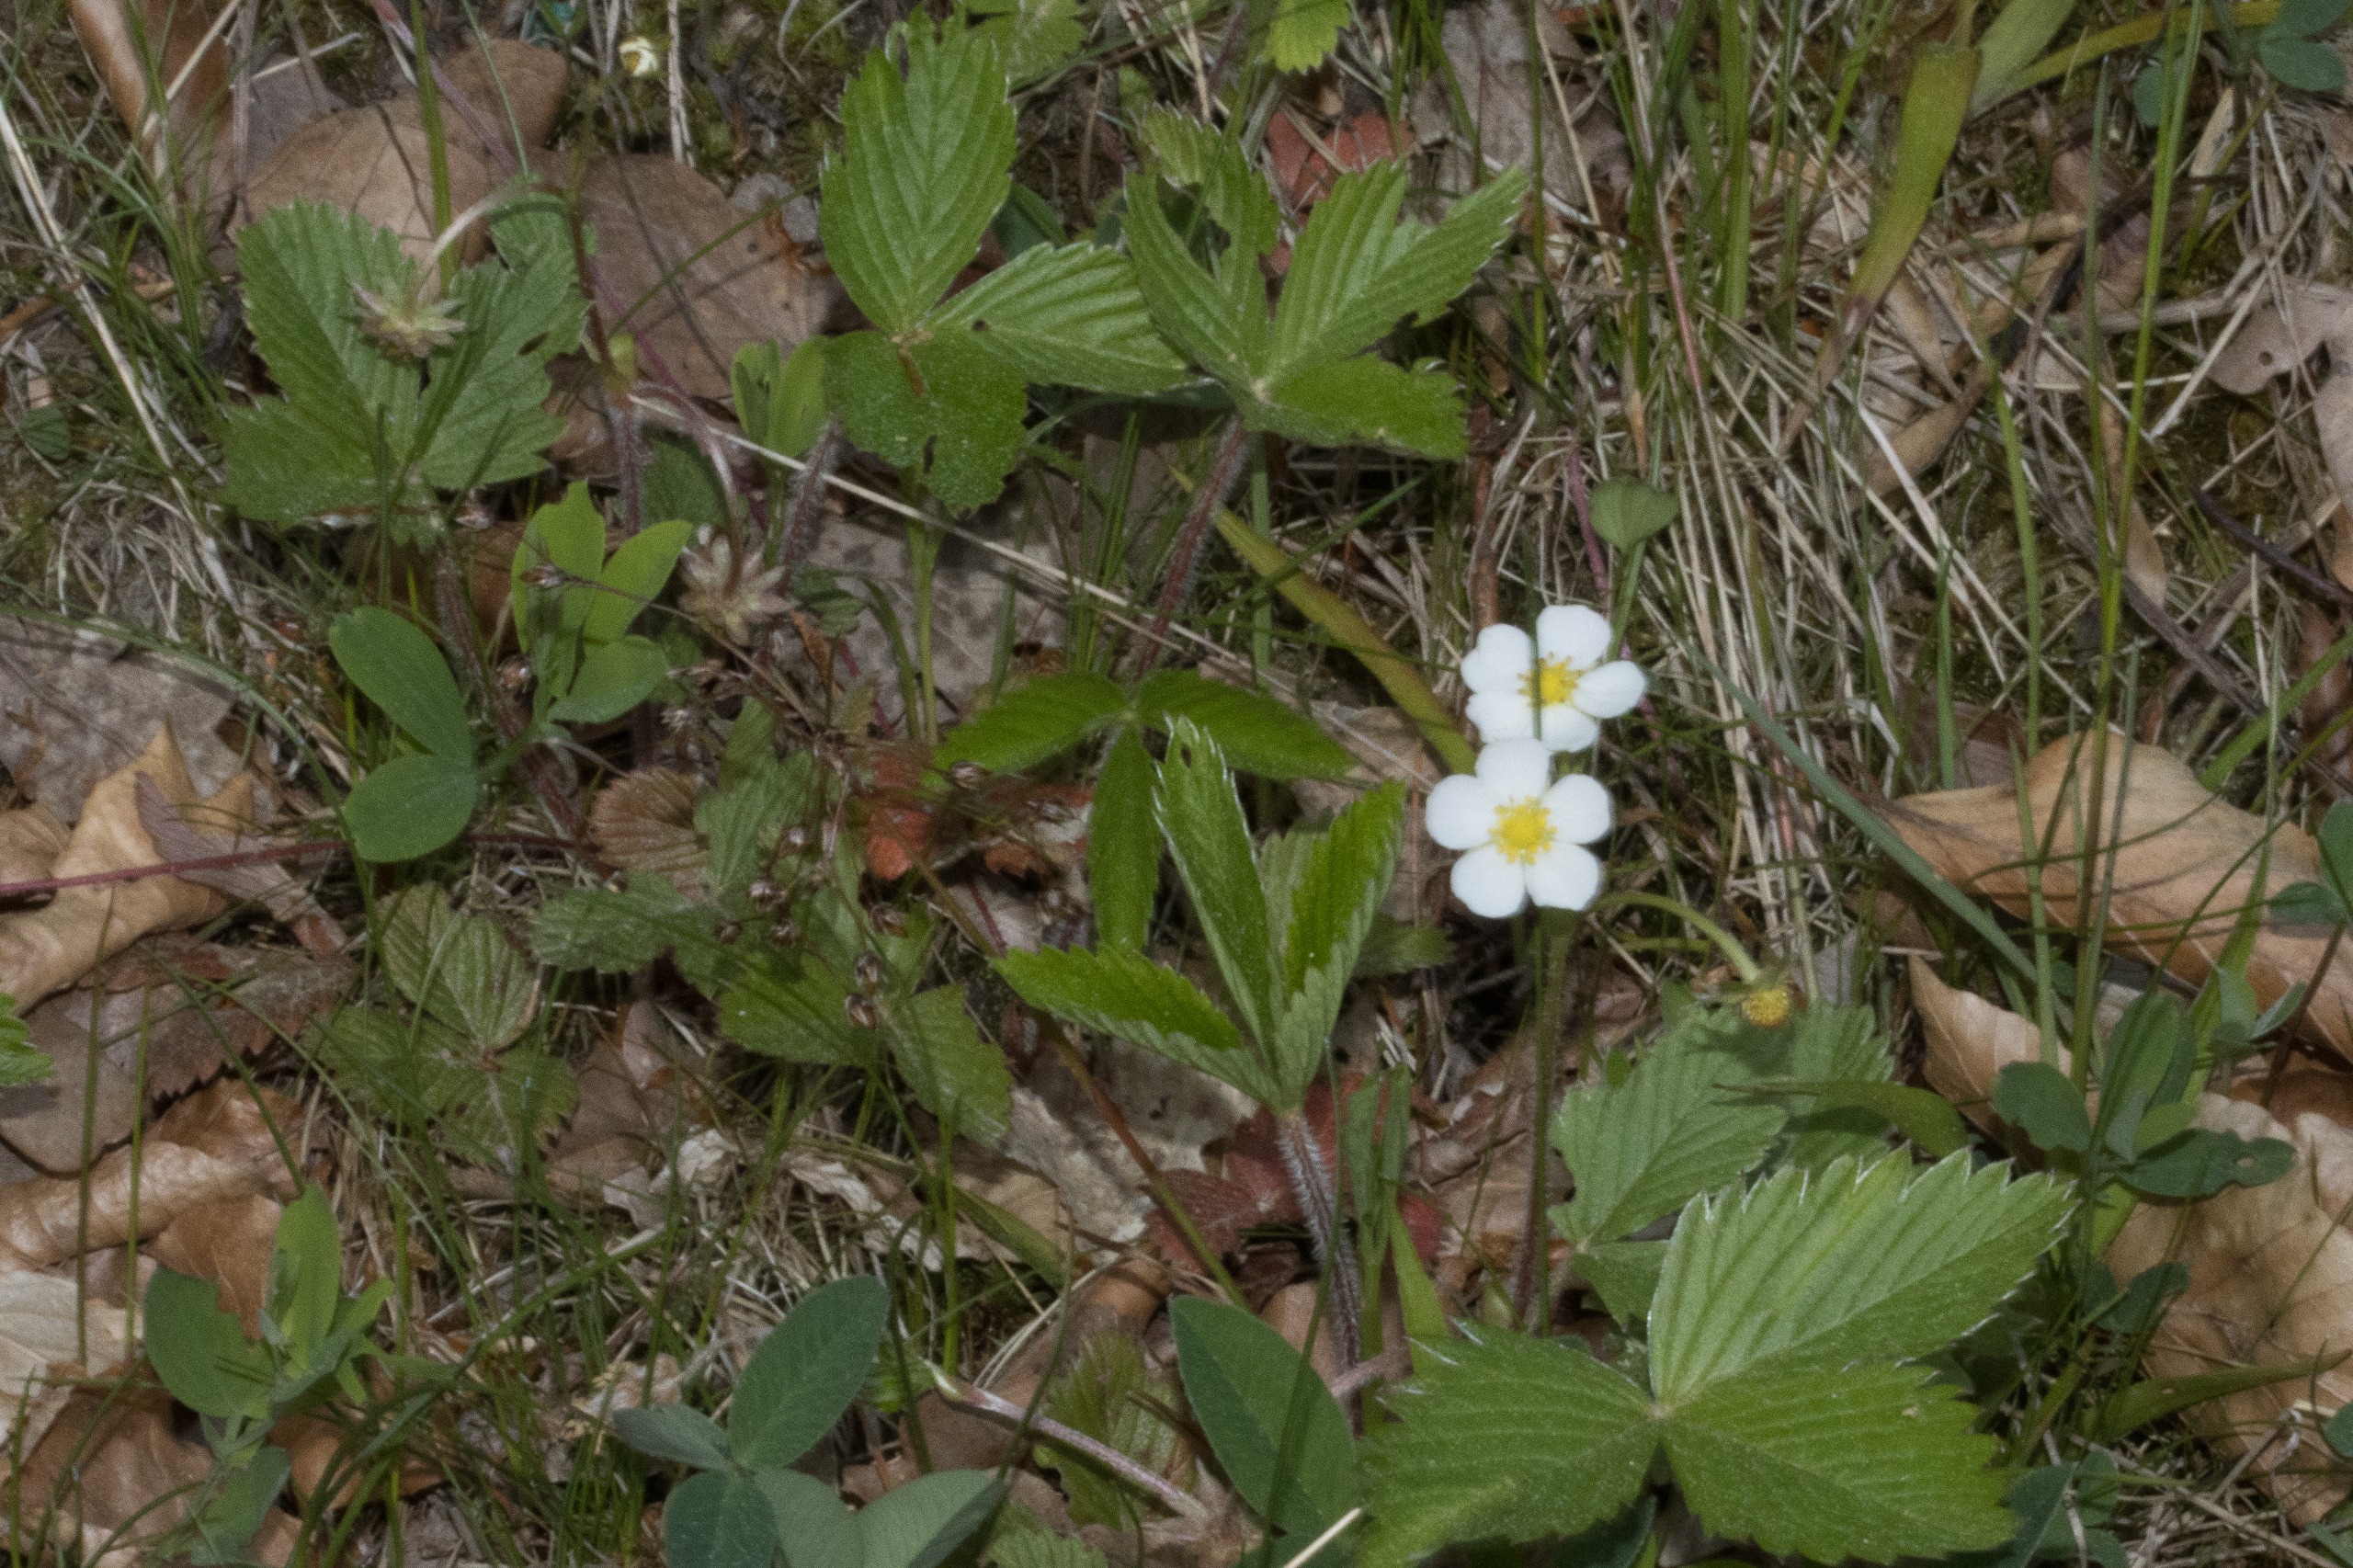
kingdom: Plantae
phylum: Tracheophyta
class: Magnoliopsida
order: Rosales
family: Rosaceae
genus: Fragaria
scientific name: Fragaria vesca
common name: Skov-jordbær
